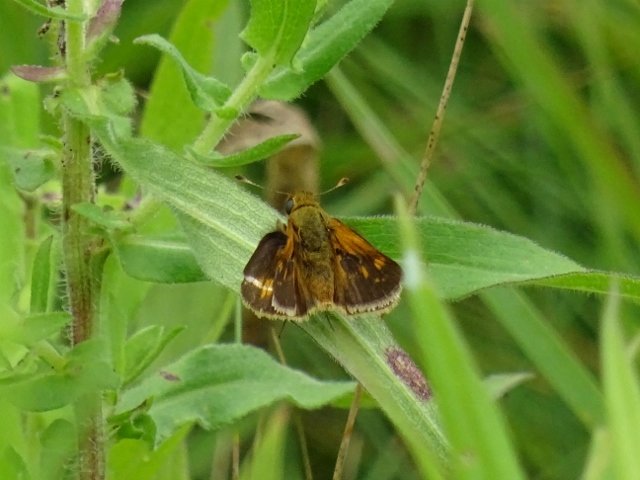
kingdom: Animalia
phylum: Arthropoda
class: Insecta
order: Lepidoptera
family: Hesperiidae
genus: Polites
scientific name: Polites coras
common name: Peck's Skipper
